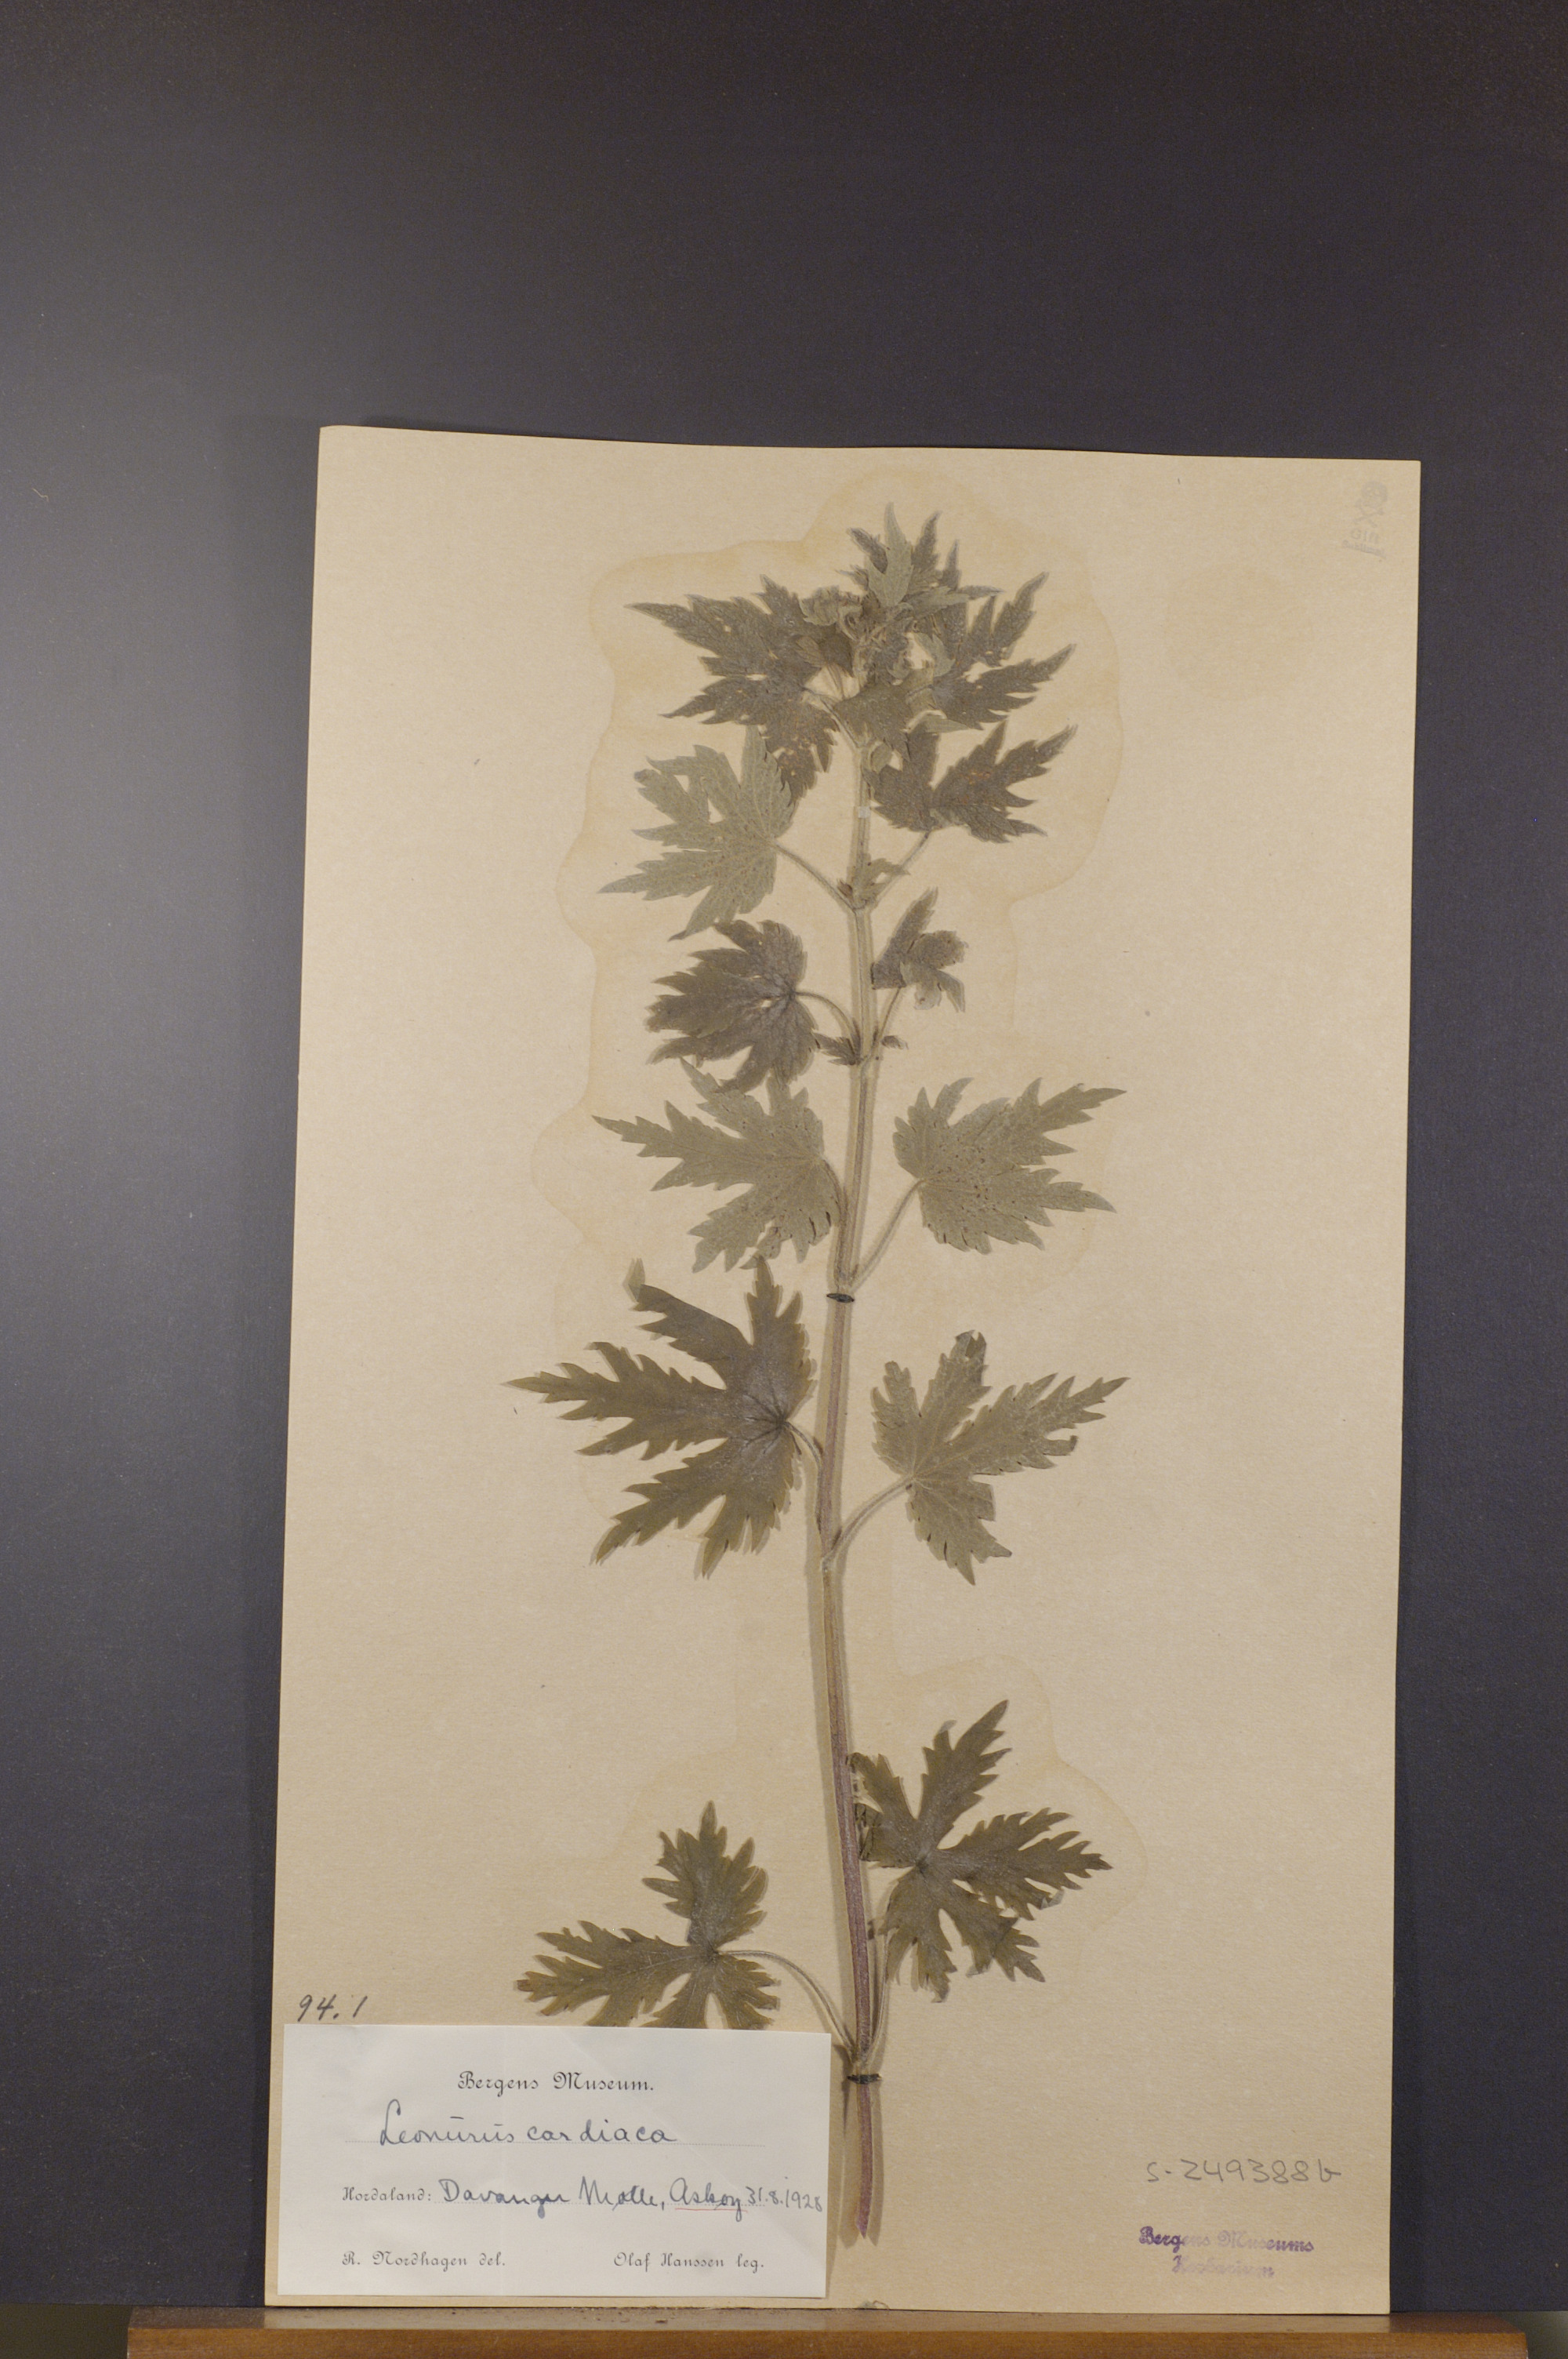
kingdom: Plantae
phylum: Tracheophyta
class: Magnoliopsida
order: Lamiales
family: Lamiaceae
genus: Leonurus
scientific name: Leonurus quinquelobatus
